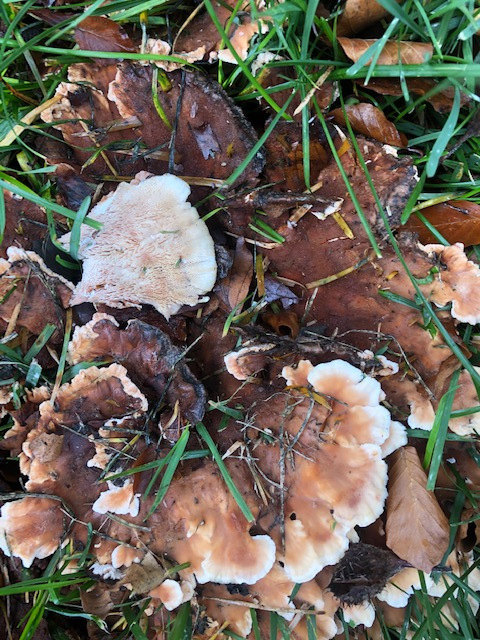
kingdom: Fungi
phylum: Basidiomycota
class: Agaricomycetes
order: Polyporales
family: Podoscyphaceae
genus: Abortiporus
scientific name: Abortiporus biennis
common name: rødmende pjalteporesvamp
